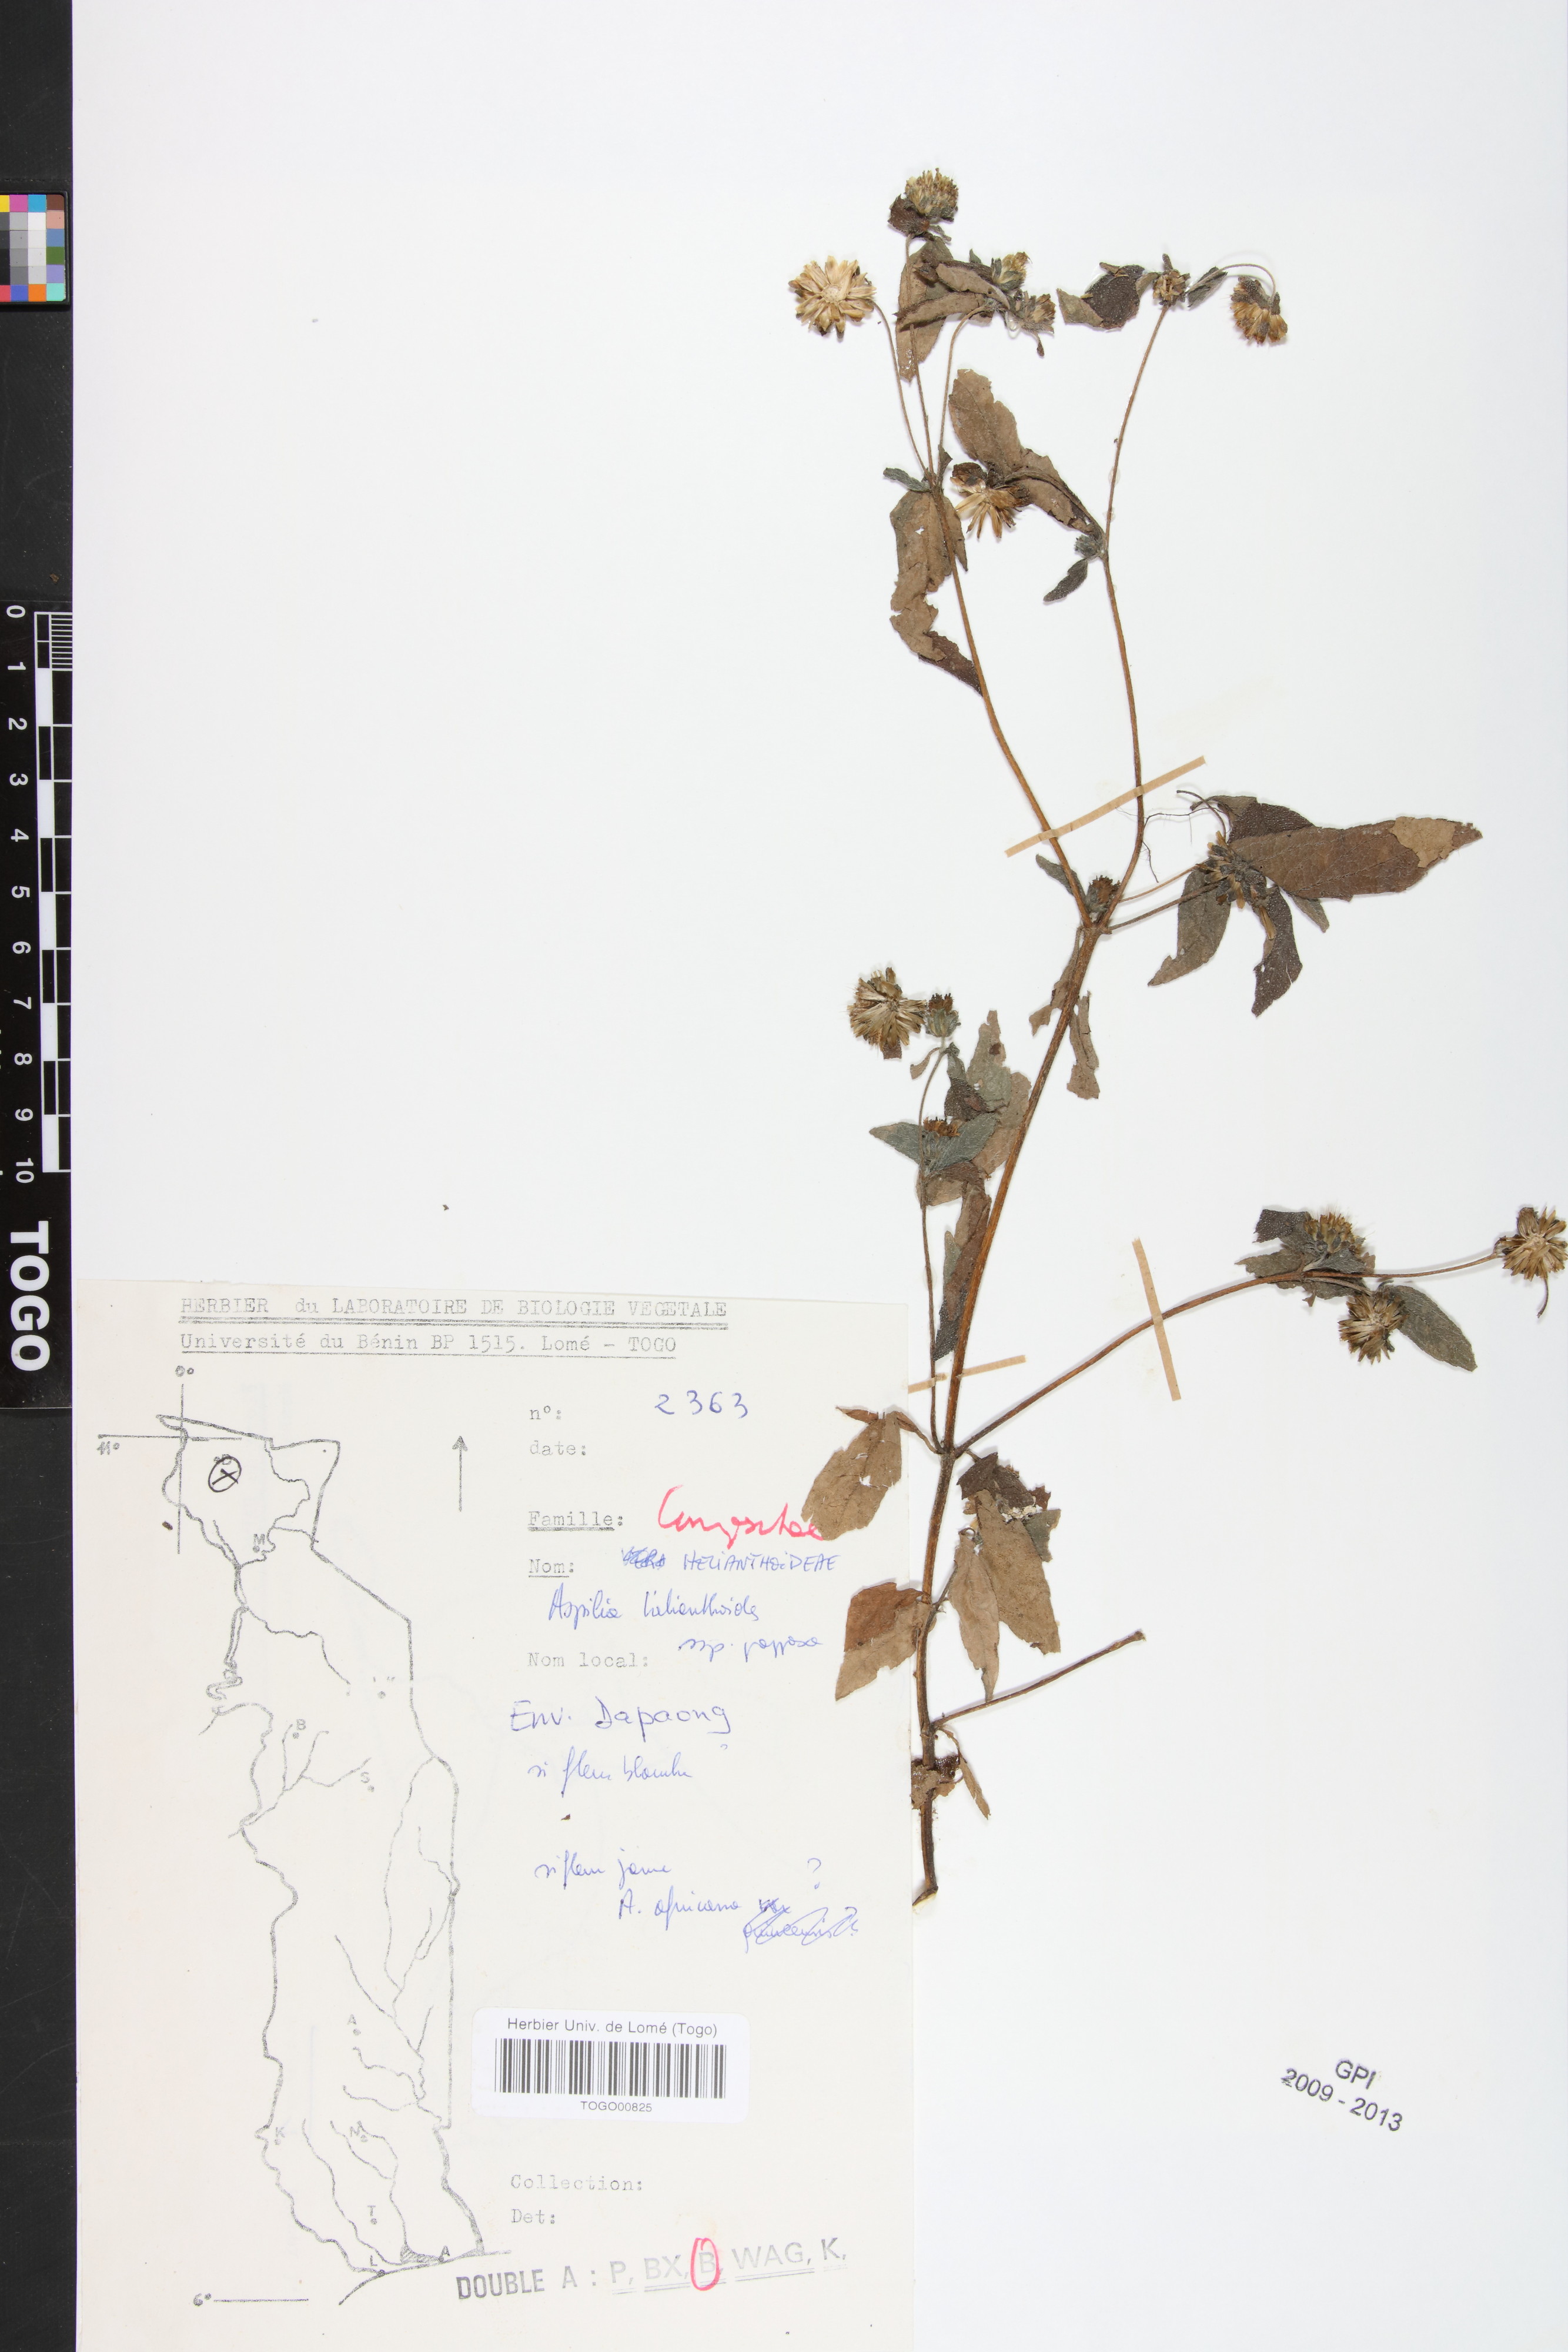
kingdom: Plantae
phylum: Tracheophyta
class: Magnoliopsida
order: Asterales
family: Asteraceae
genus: Aspilia
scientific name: Aspilia helianthoides
